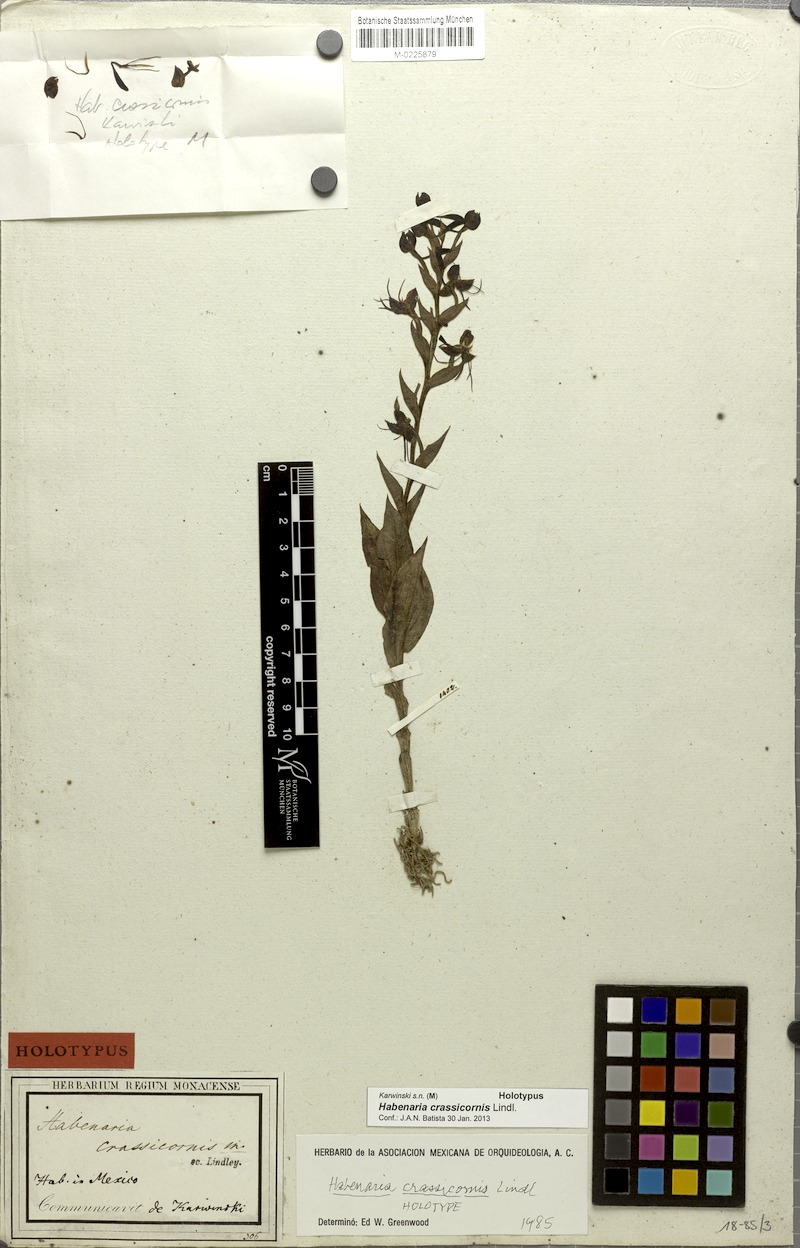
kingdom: Plantae
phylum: Tracheophyta
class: Liliopsida
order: Asparagales
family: Orchidaceae
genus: Habenaria
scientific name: Habenaria crassicornis
